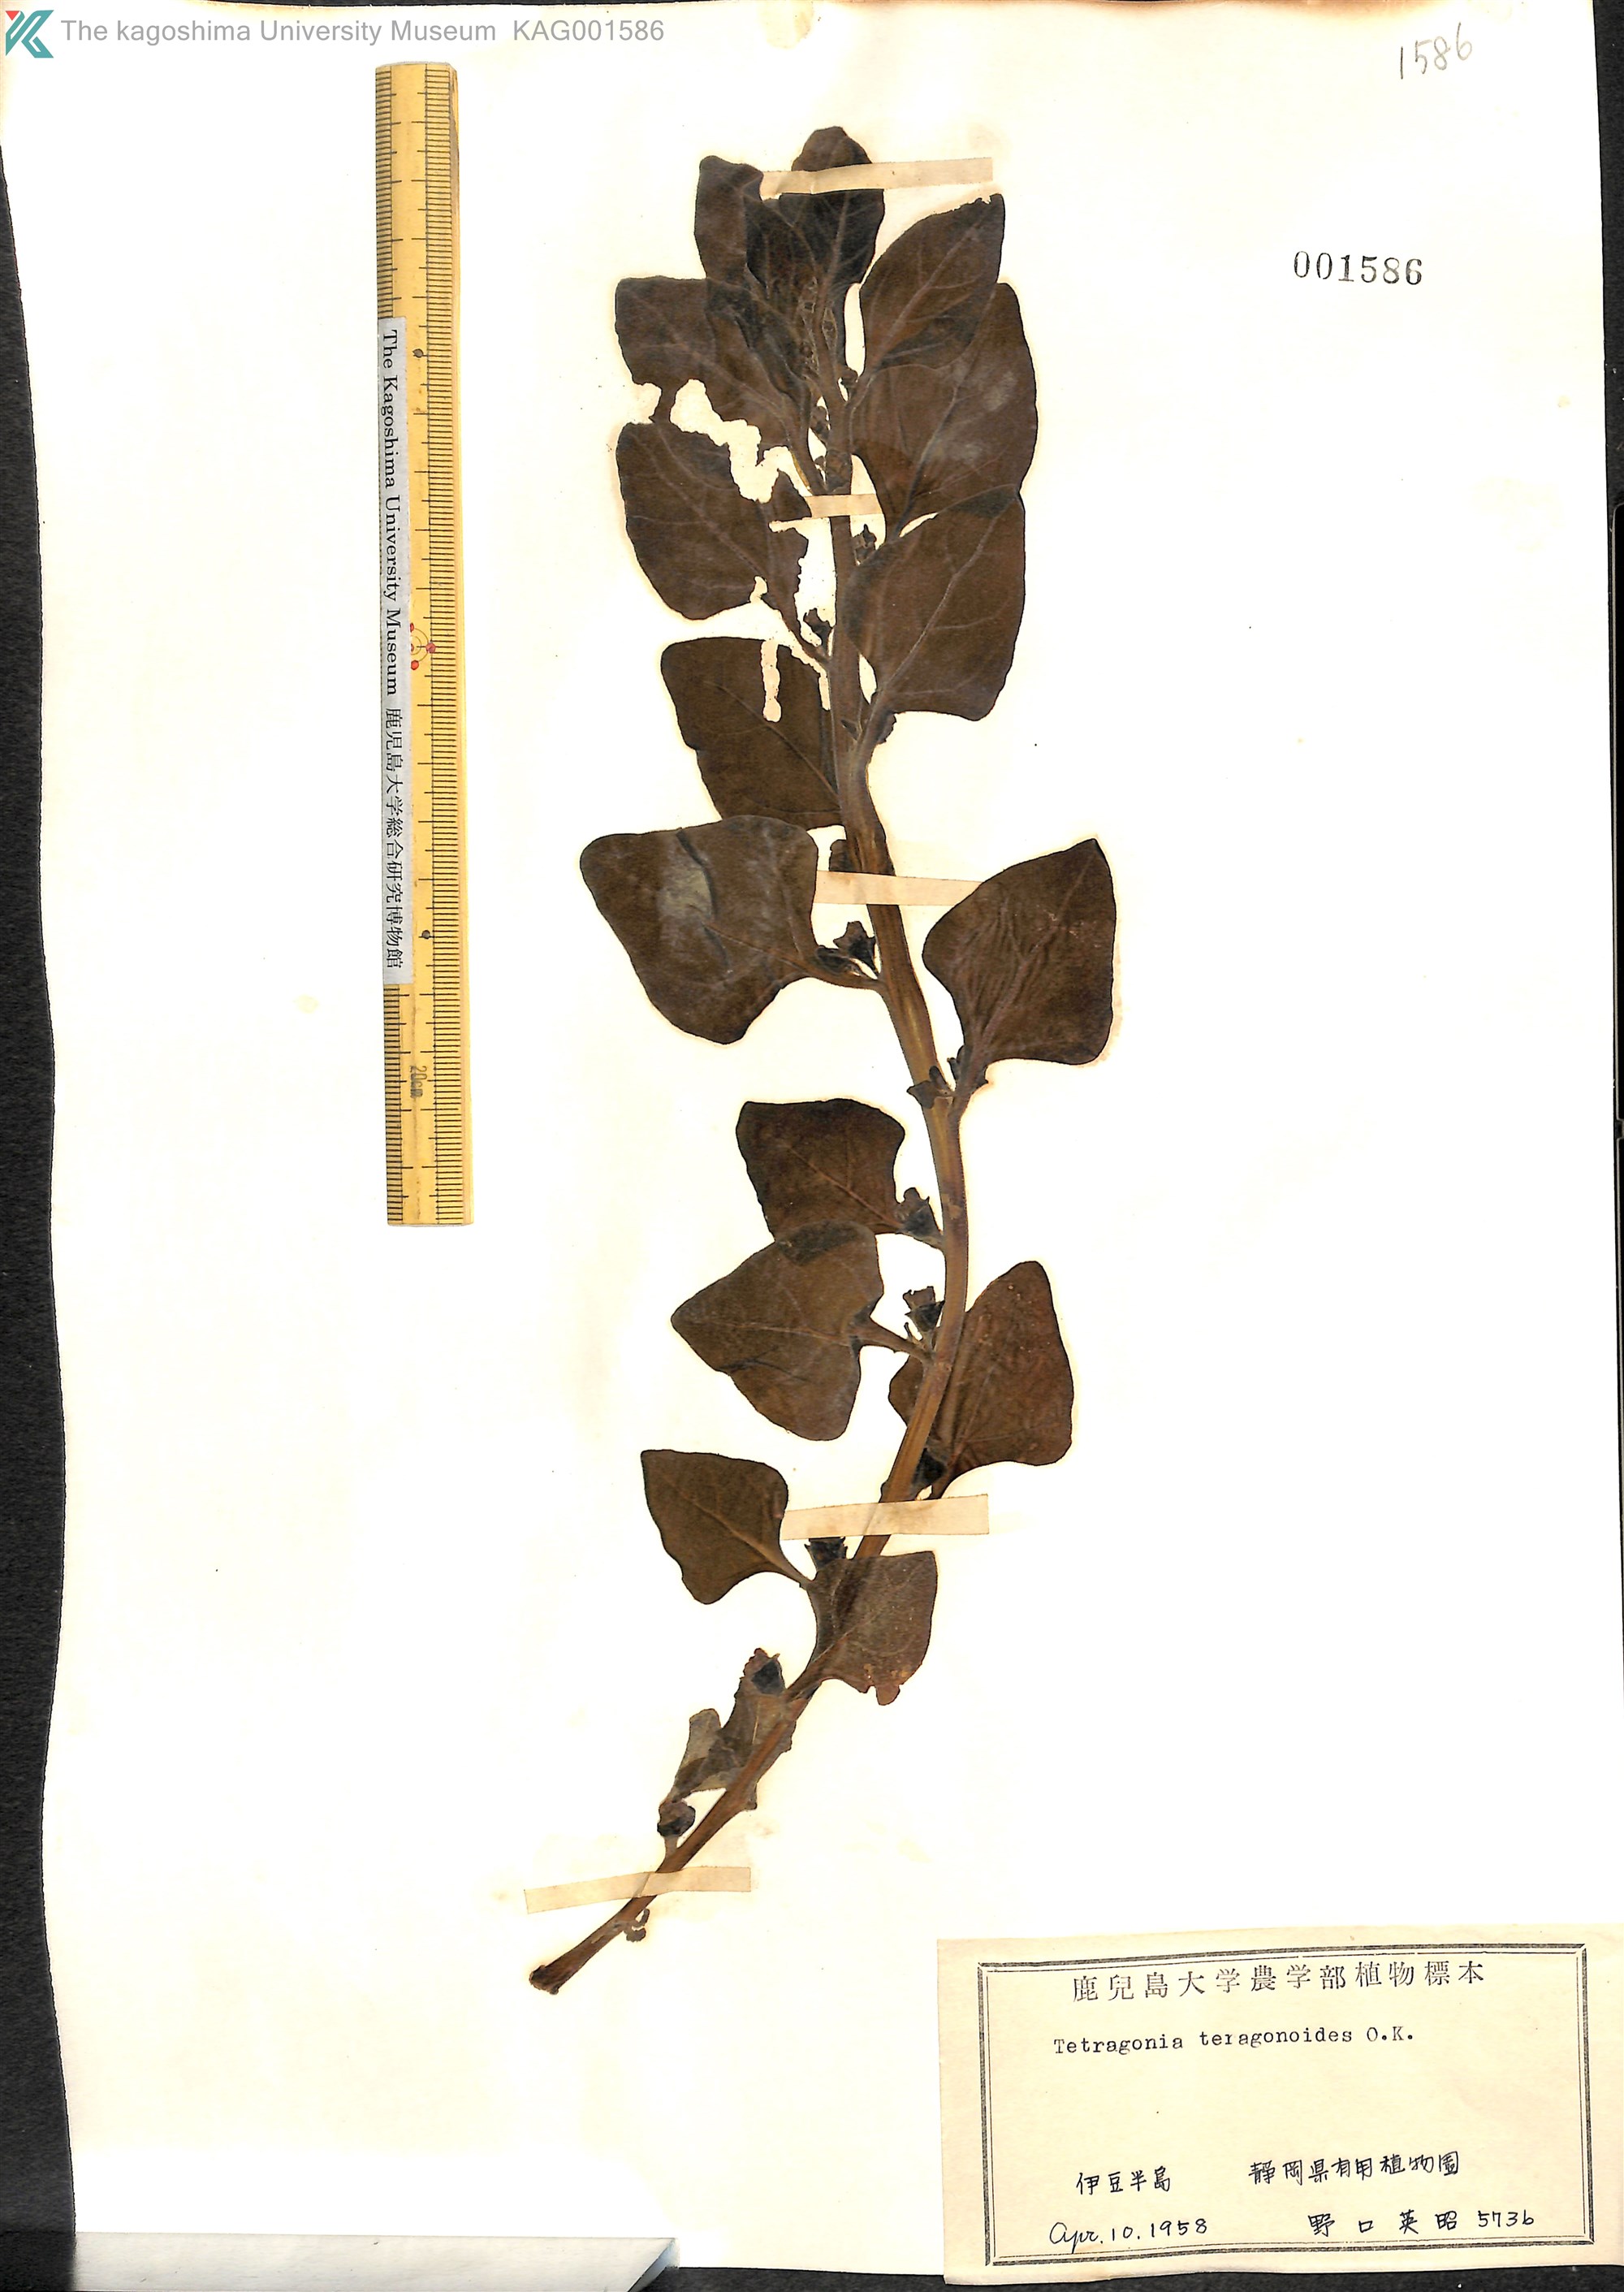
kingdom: Plantae
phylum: Tracheophyta
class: Magnoliopsida
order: Caryophyllales
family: Aizoaceae
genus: Tetragonia
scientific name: Tetragonia tetragonoides
